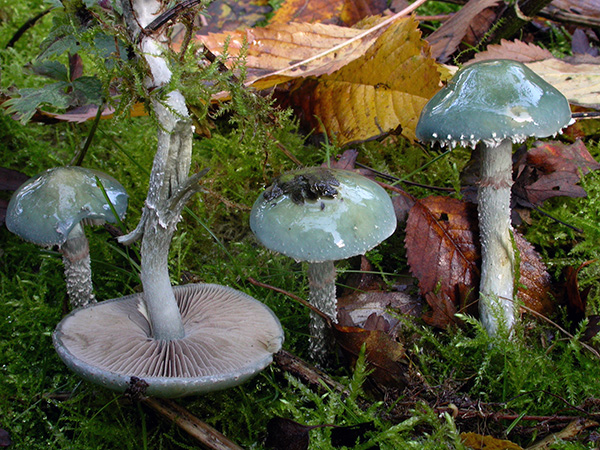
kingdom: Fungi
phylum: Basidiomycota
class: Agaricomycetes
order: Agaricales
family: Strophariaceae
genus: Stropharia
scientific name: Stropharia cyanea
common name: blågrøn bredblad
